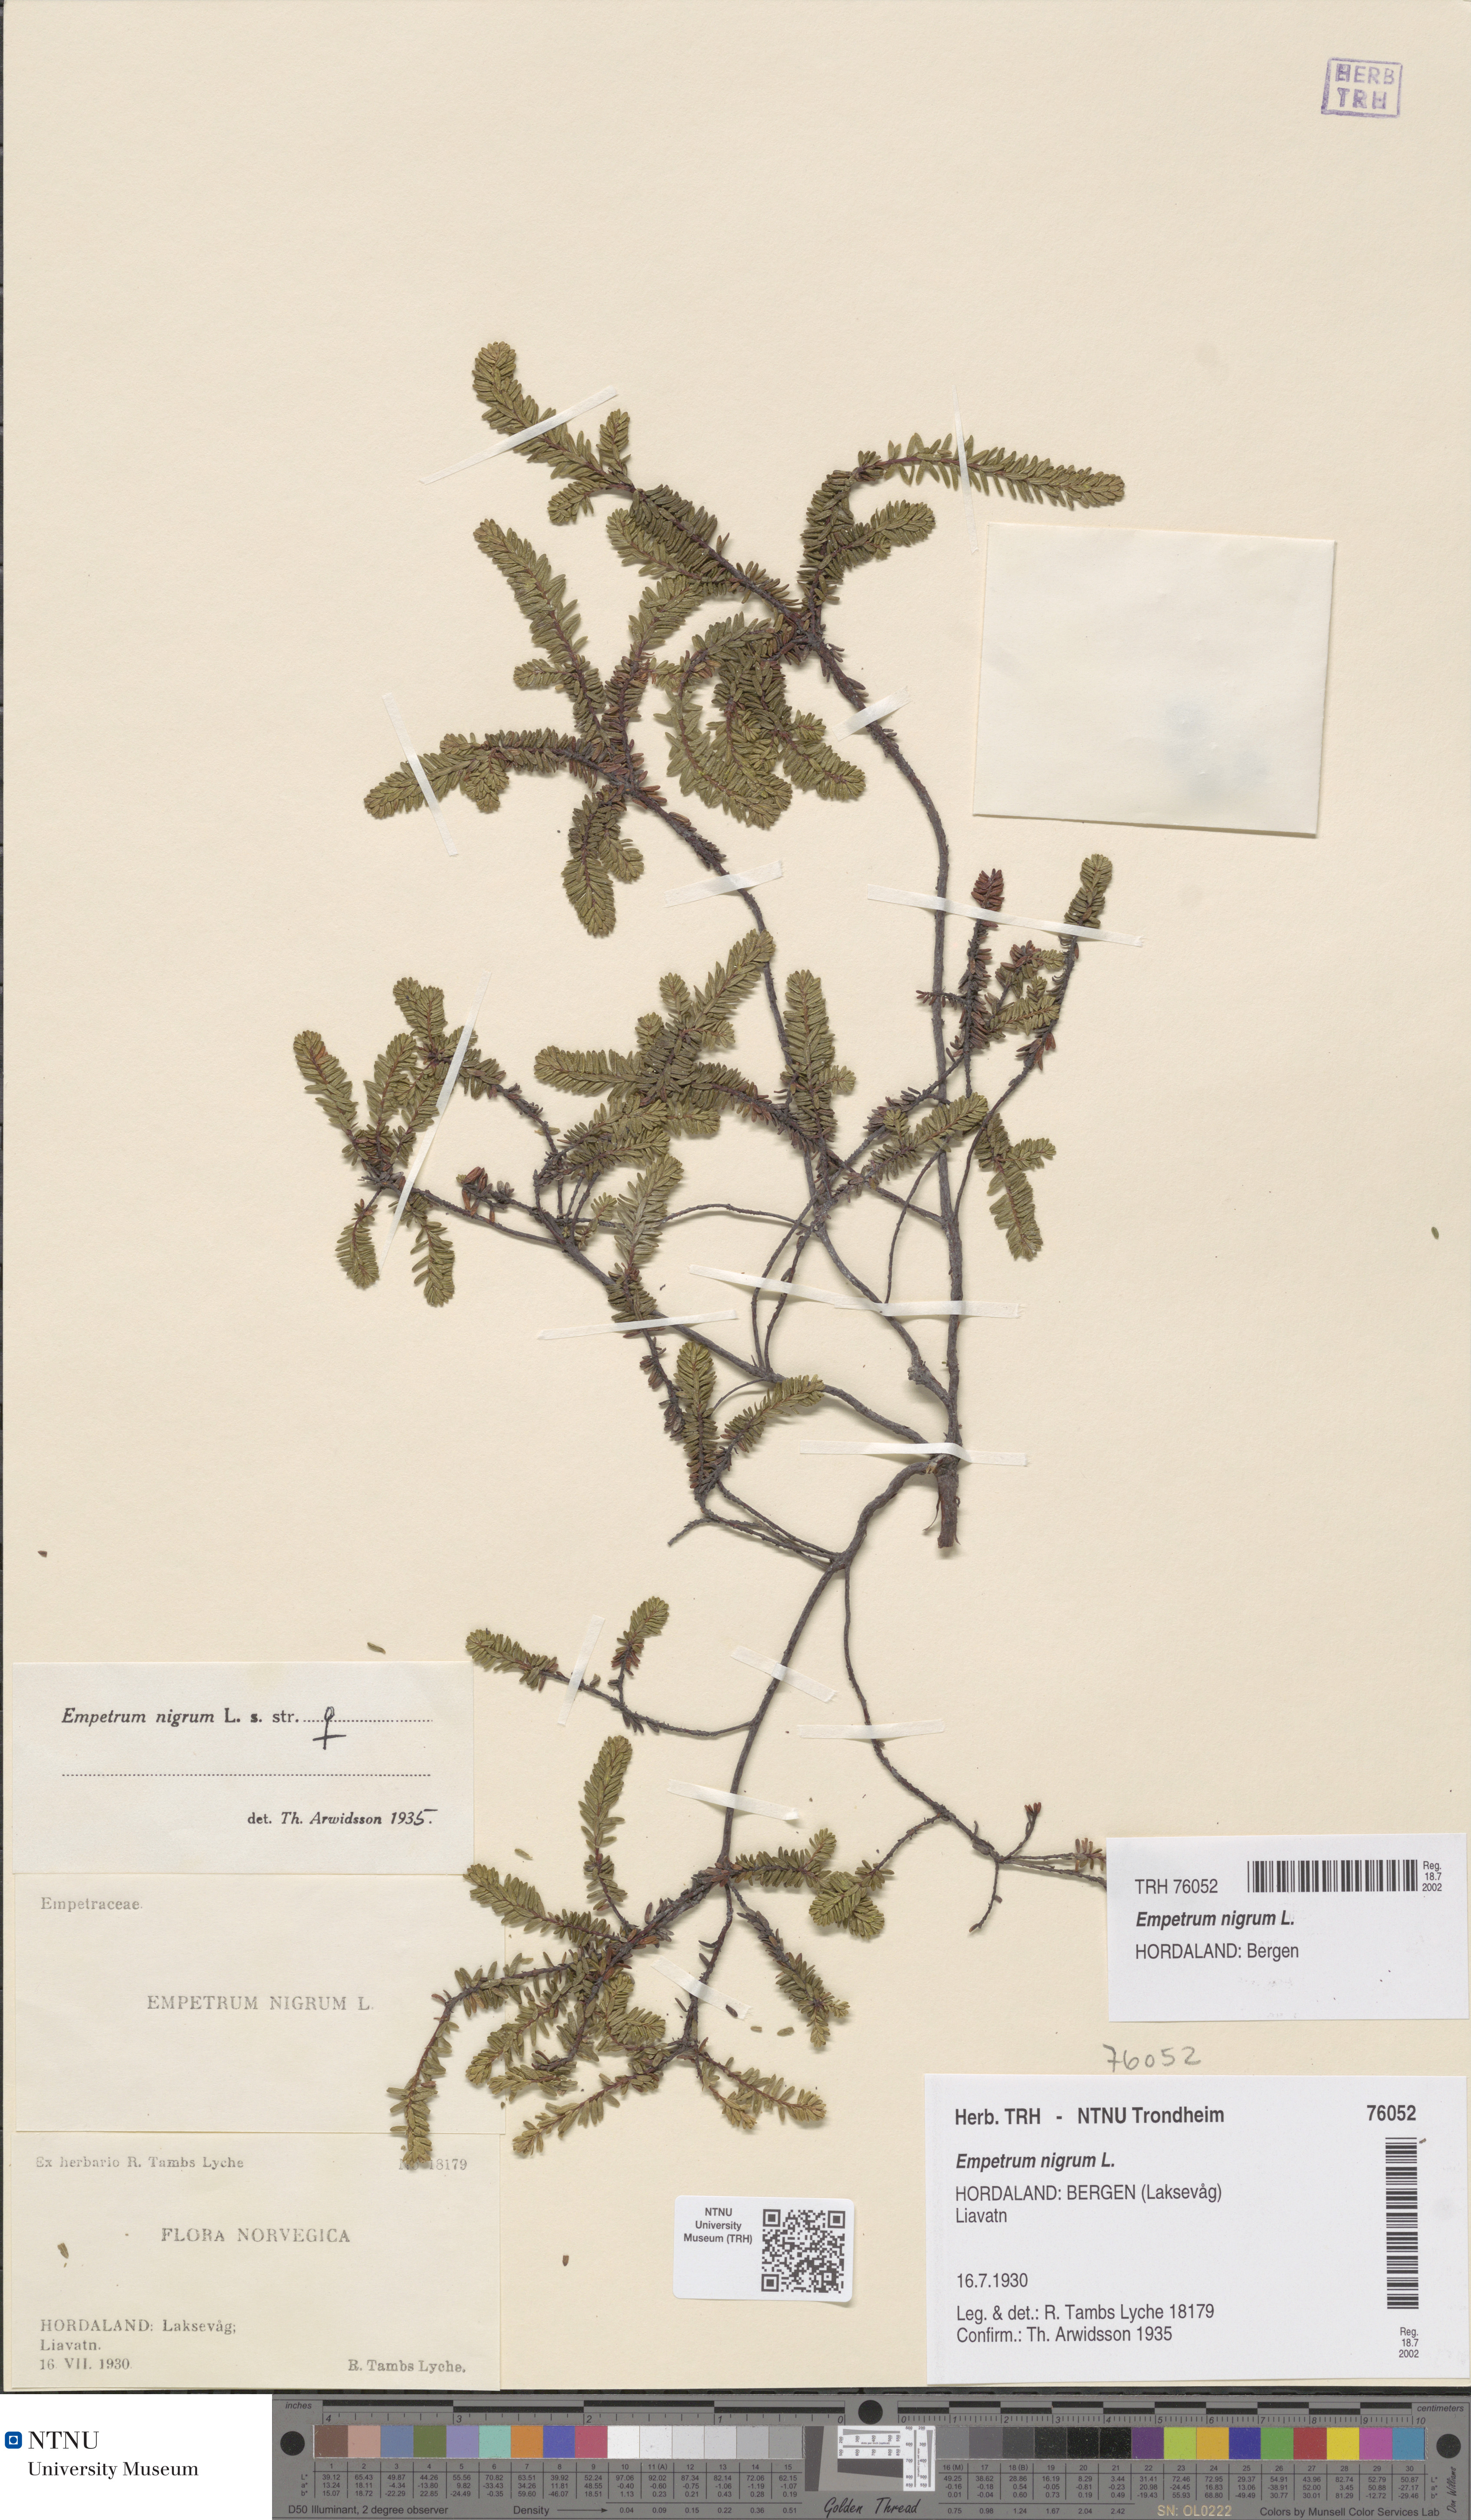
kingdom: Plantae
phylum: Tracheophyta
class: Magnoliopsida
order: Ericales
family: Ericaceae
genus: Empetrum
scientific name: Empetrum nigrum
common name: Black crowberry
